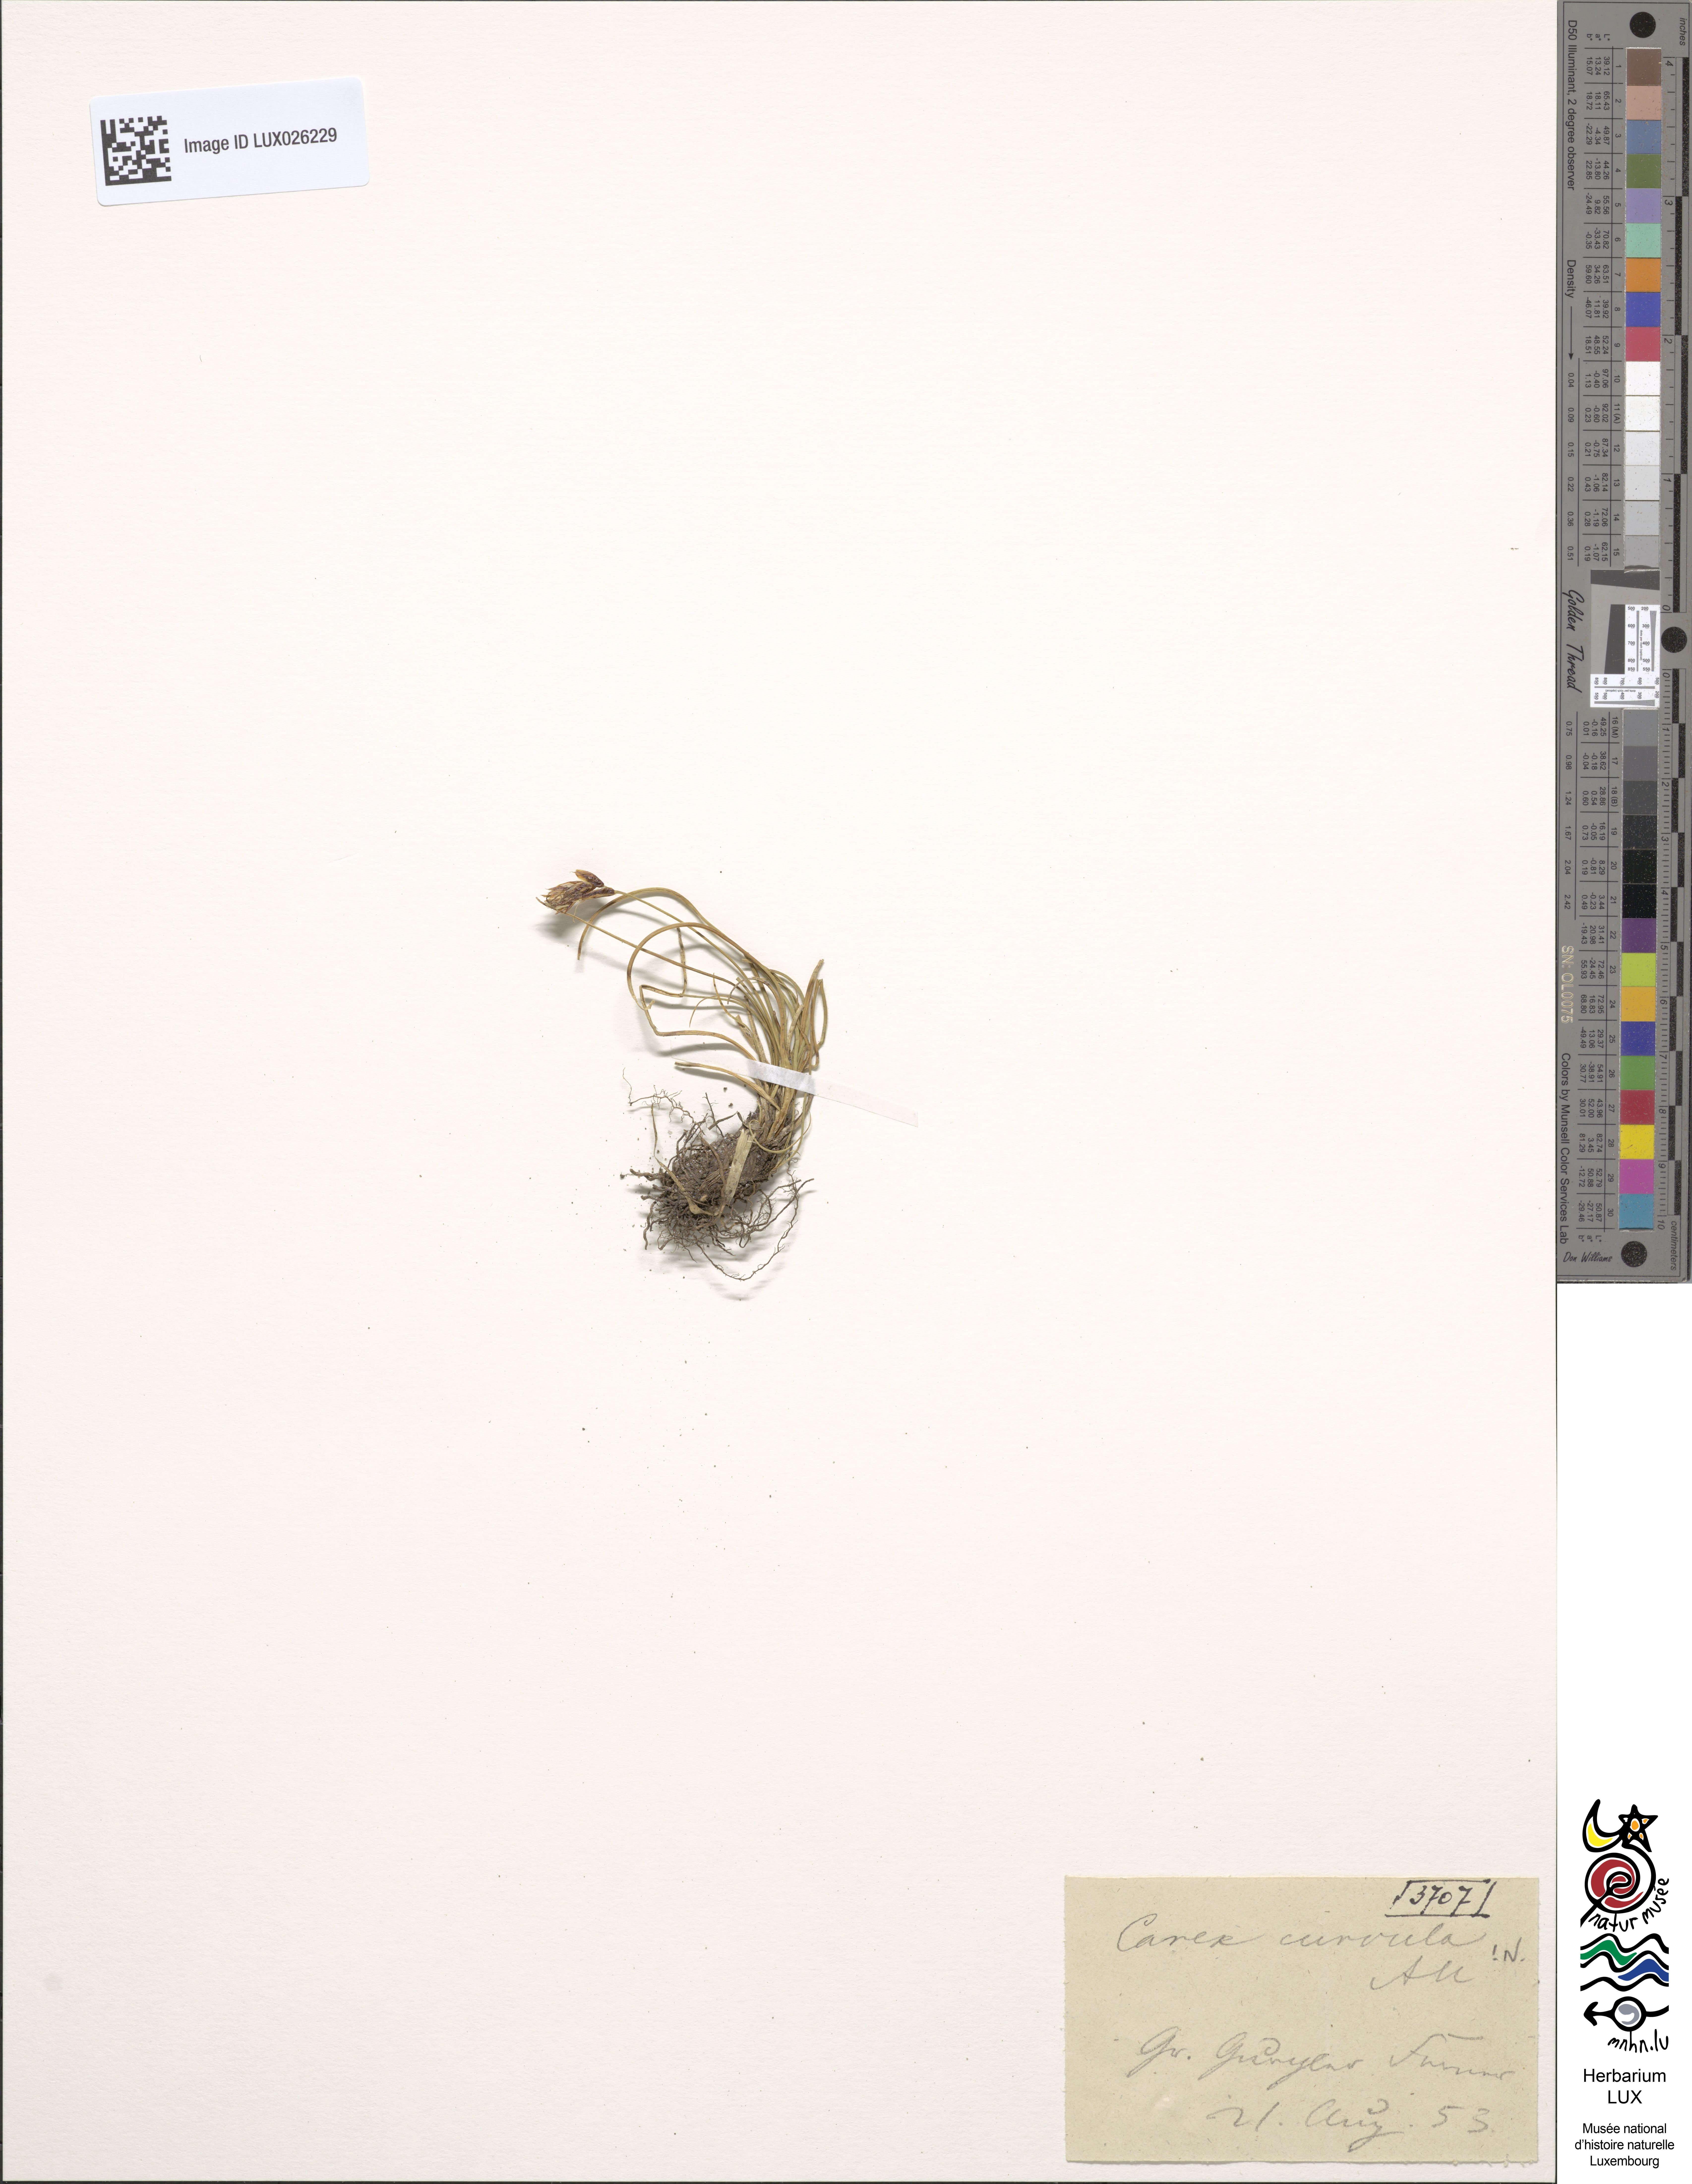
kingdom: Plantae
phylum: Tracheophyta
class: Liliopsida
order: Poales
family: Cyperaceae
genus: Carex
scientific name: Carex curvula
